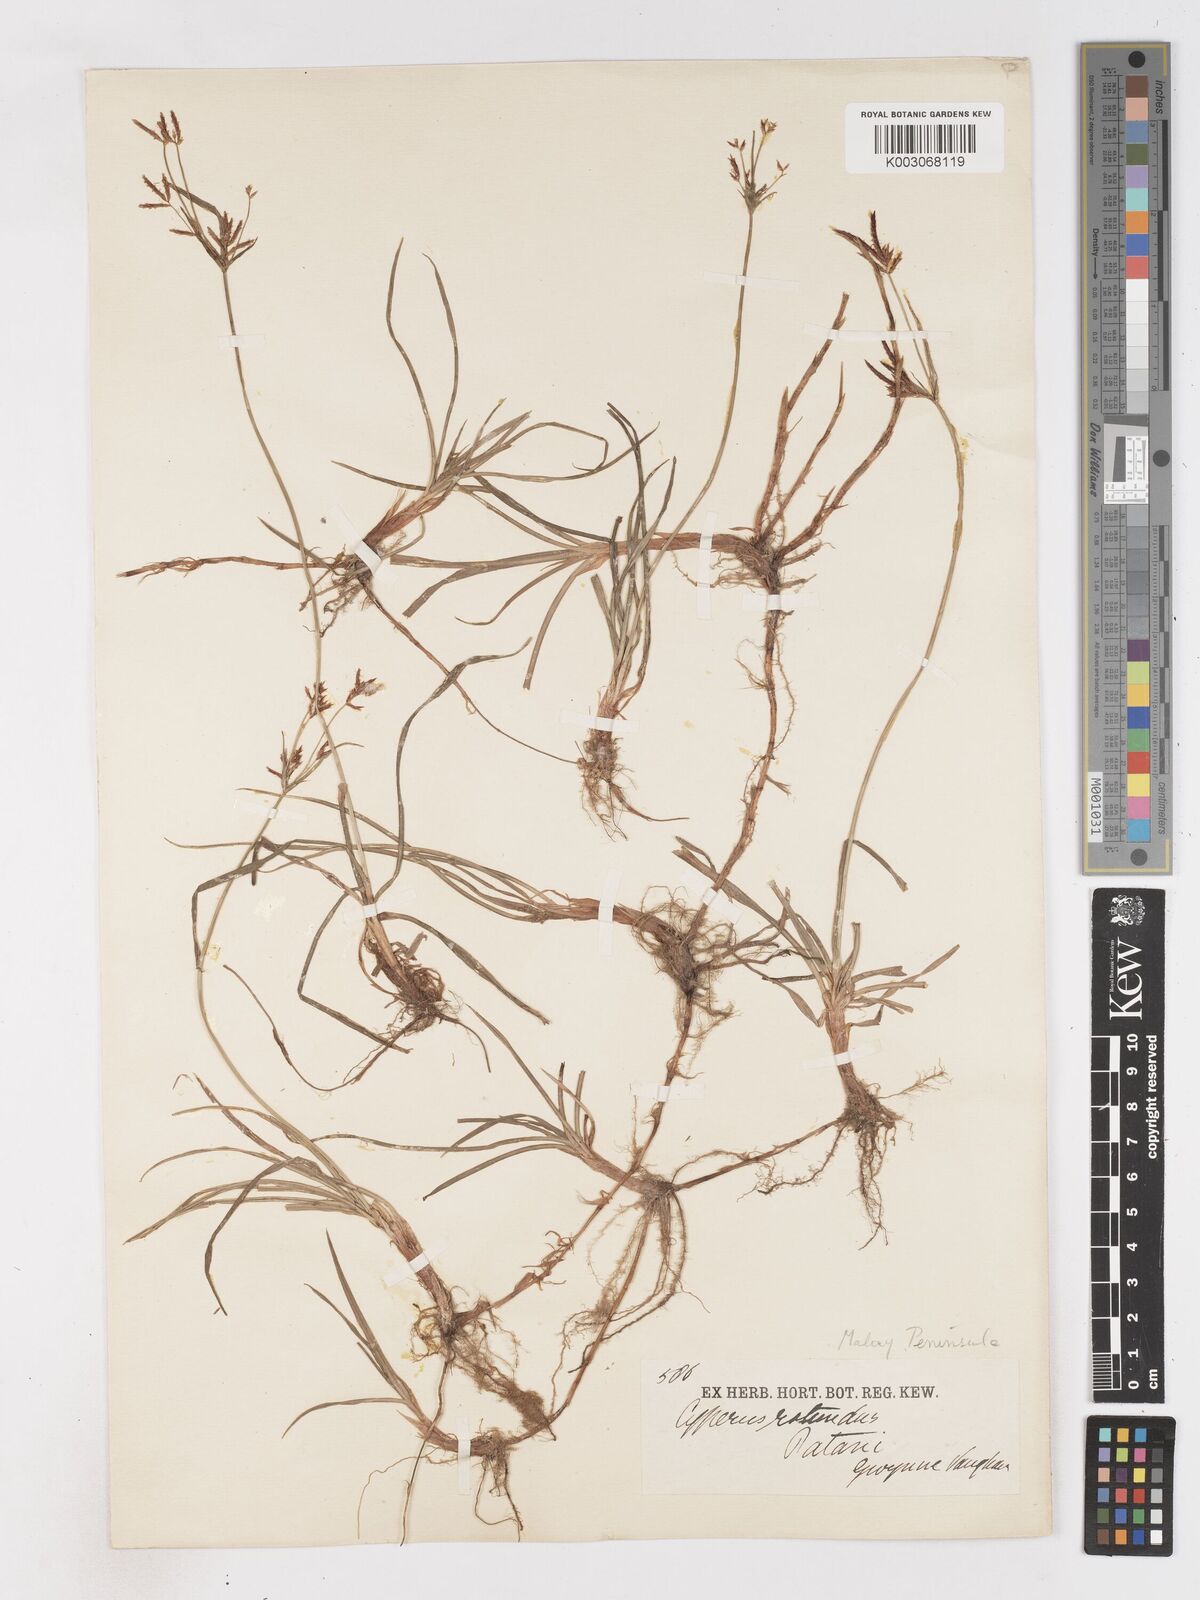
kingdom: Plantae
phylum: Tracheophyta
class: Liliopsida
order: Poales
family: Cyperaceae
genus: Cyperus
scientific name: Cyperus rotundus
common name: Nutgrass
